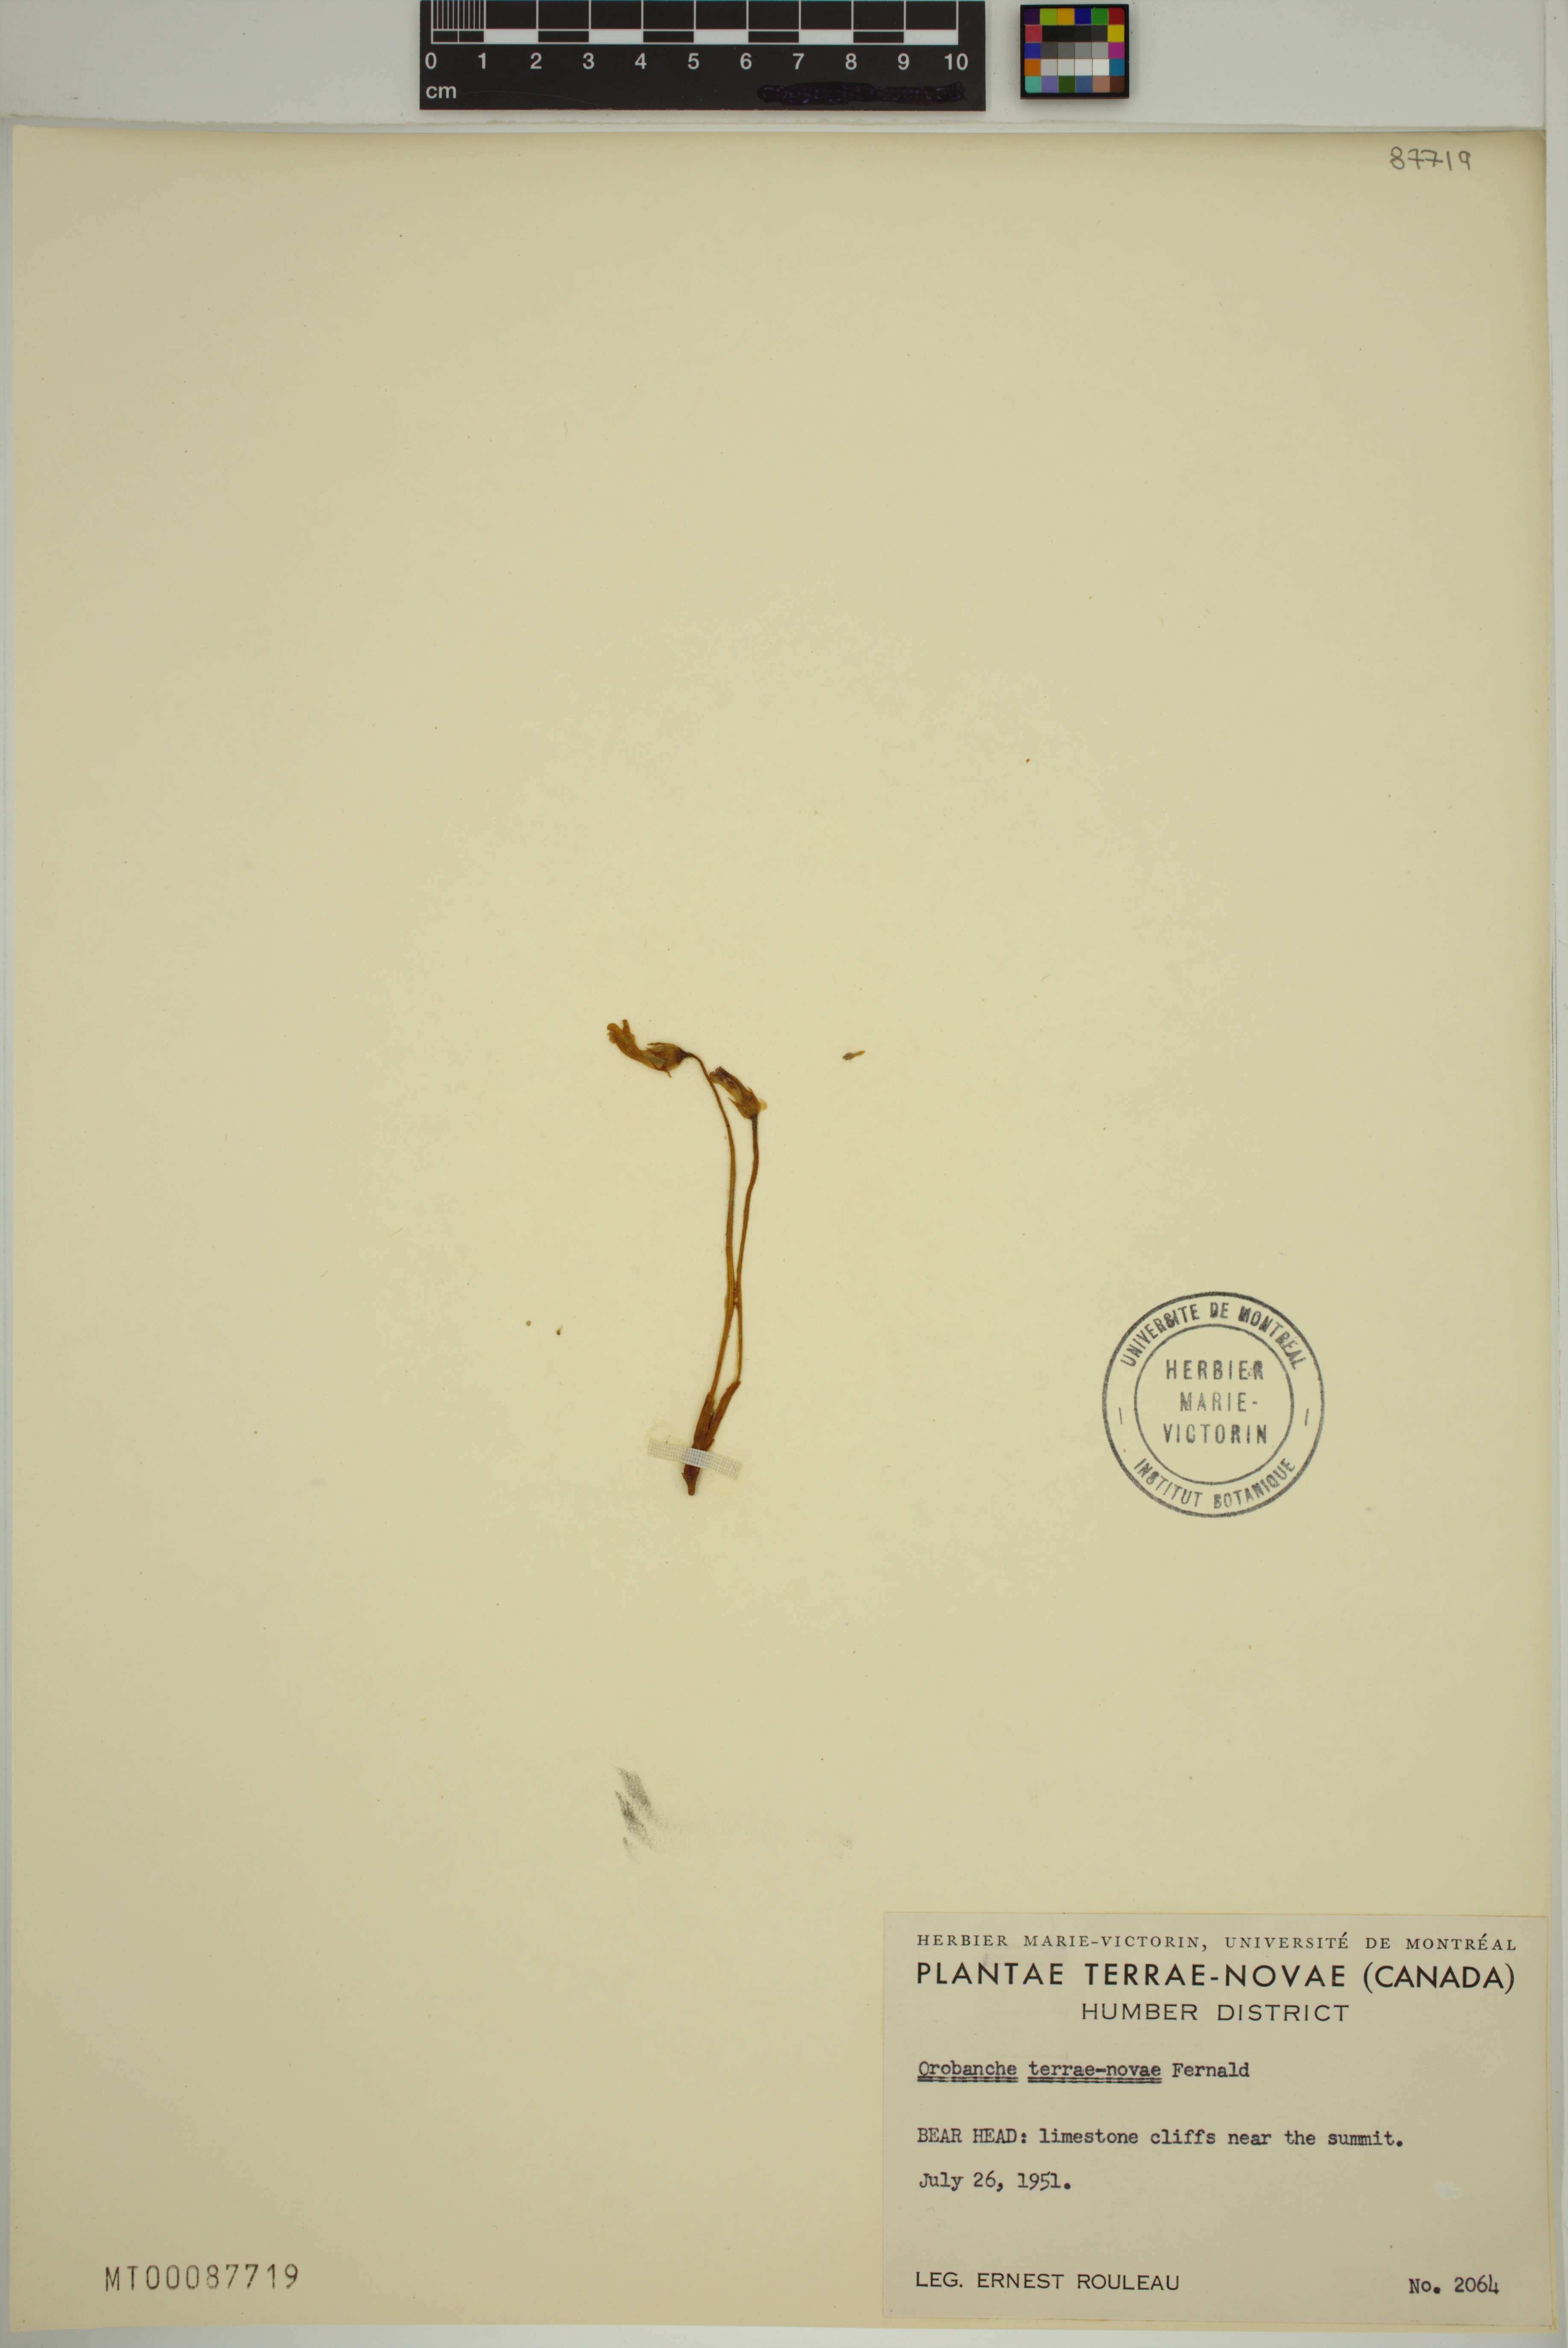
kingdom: Plantae
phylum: Tracheophyta
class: Magnoliopsida
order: Lamiales
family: Orobanchaceae
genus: Aphyllon
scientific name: Aphyllon uniflorum
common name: One-flowered broomrape
